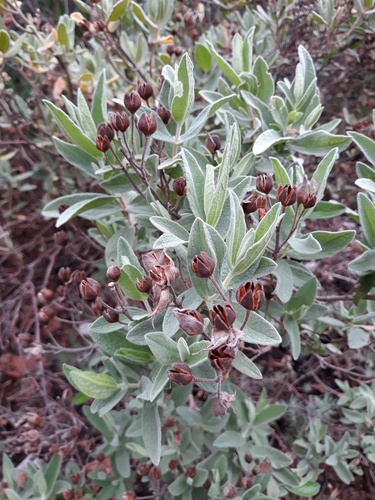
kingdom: Plantae
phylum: Tracheophyta
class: Magnoliopsida
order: Malvales
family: Cistaceae
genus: Cistus
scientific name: Cistus albidus
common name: White-leaf rock-rose
